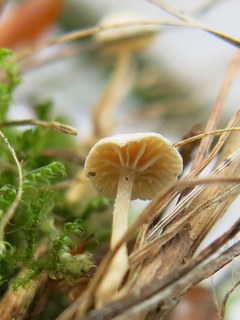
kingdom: Fungi
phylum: Basidiomycota
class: Agaricomycetes
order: Agaricales
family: Omphalotaceae
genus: Collybiopsis
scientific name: Collybiopsis vaillantii
